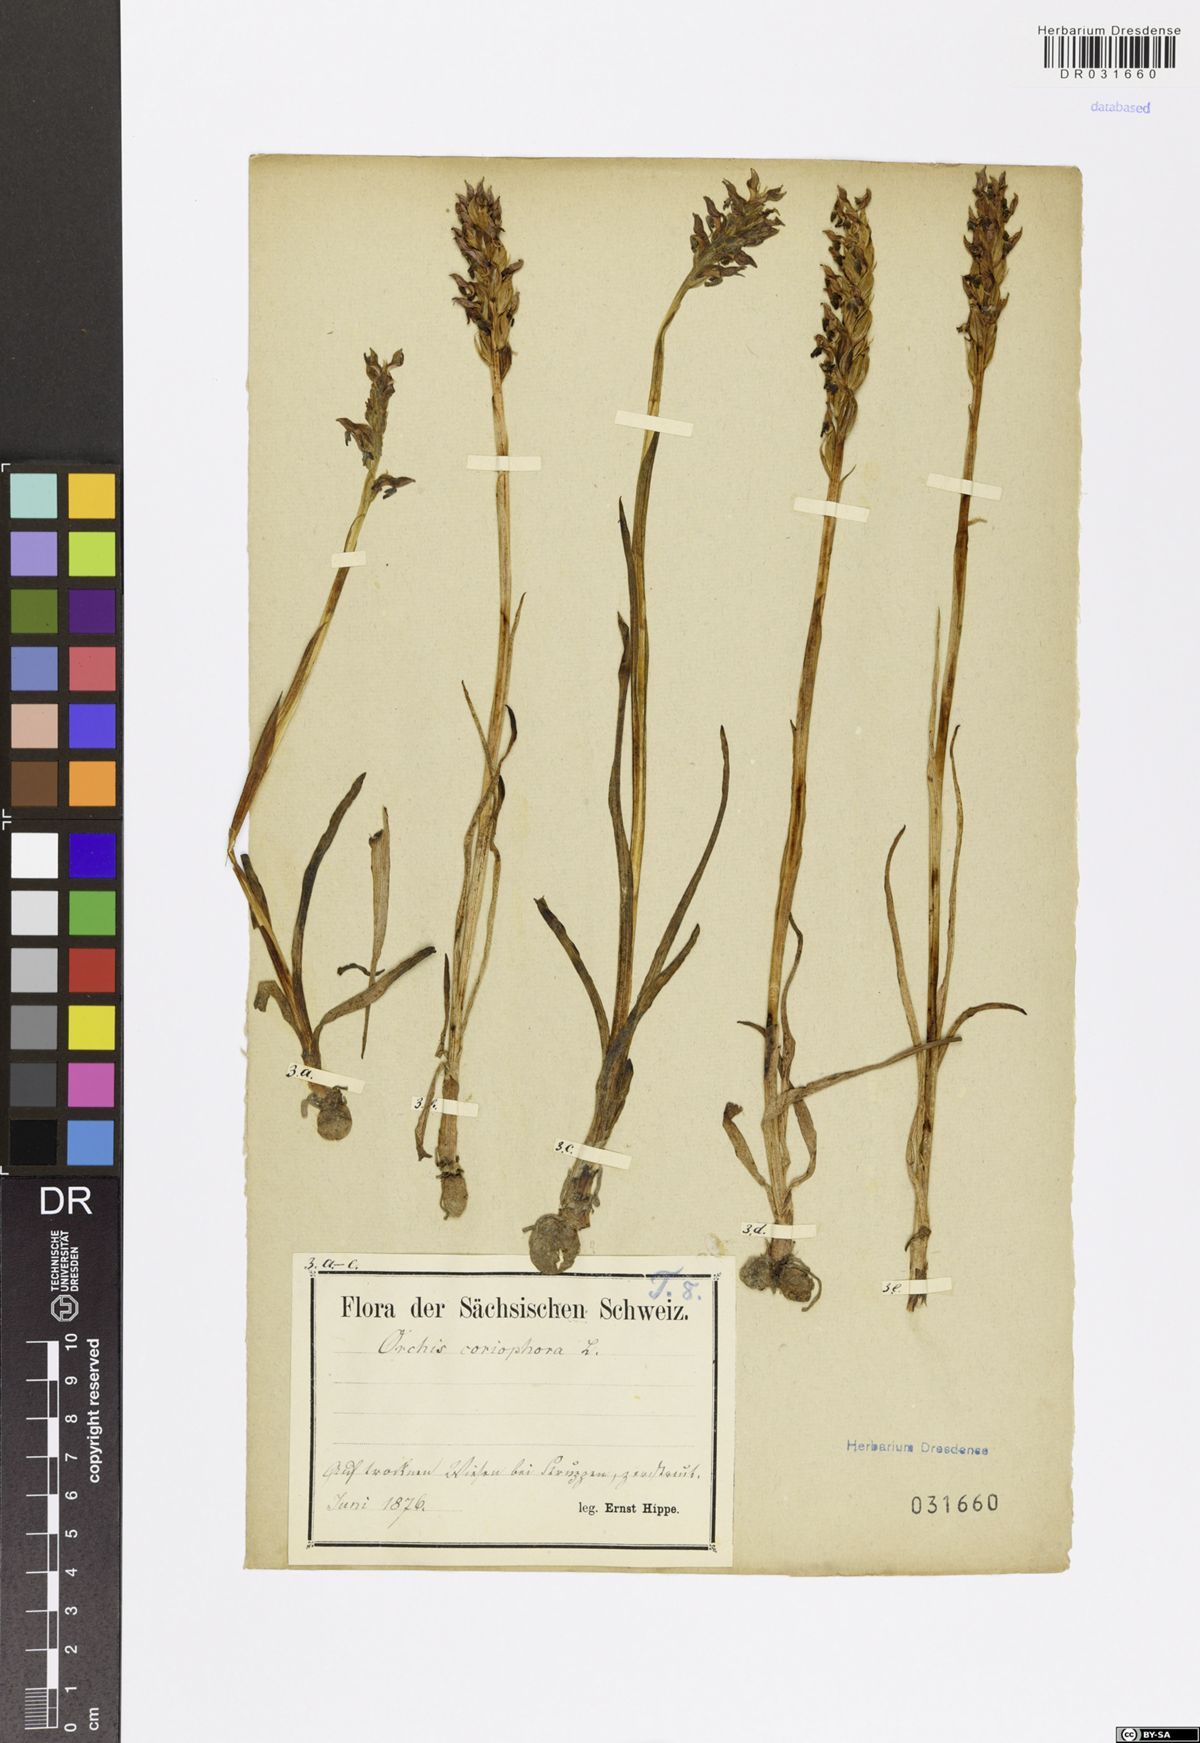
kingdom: Plantae
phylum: Tracheophyta
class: Liliopsida
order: Asparagales
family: Orchidaceae
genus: Anacamptis
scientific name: Anacamptis coriophora
